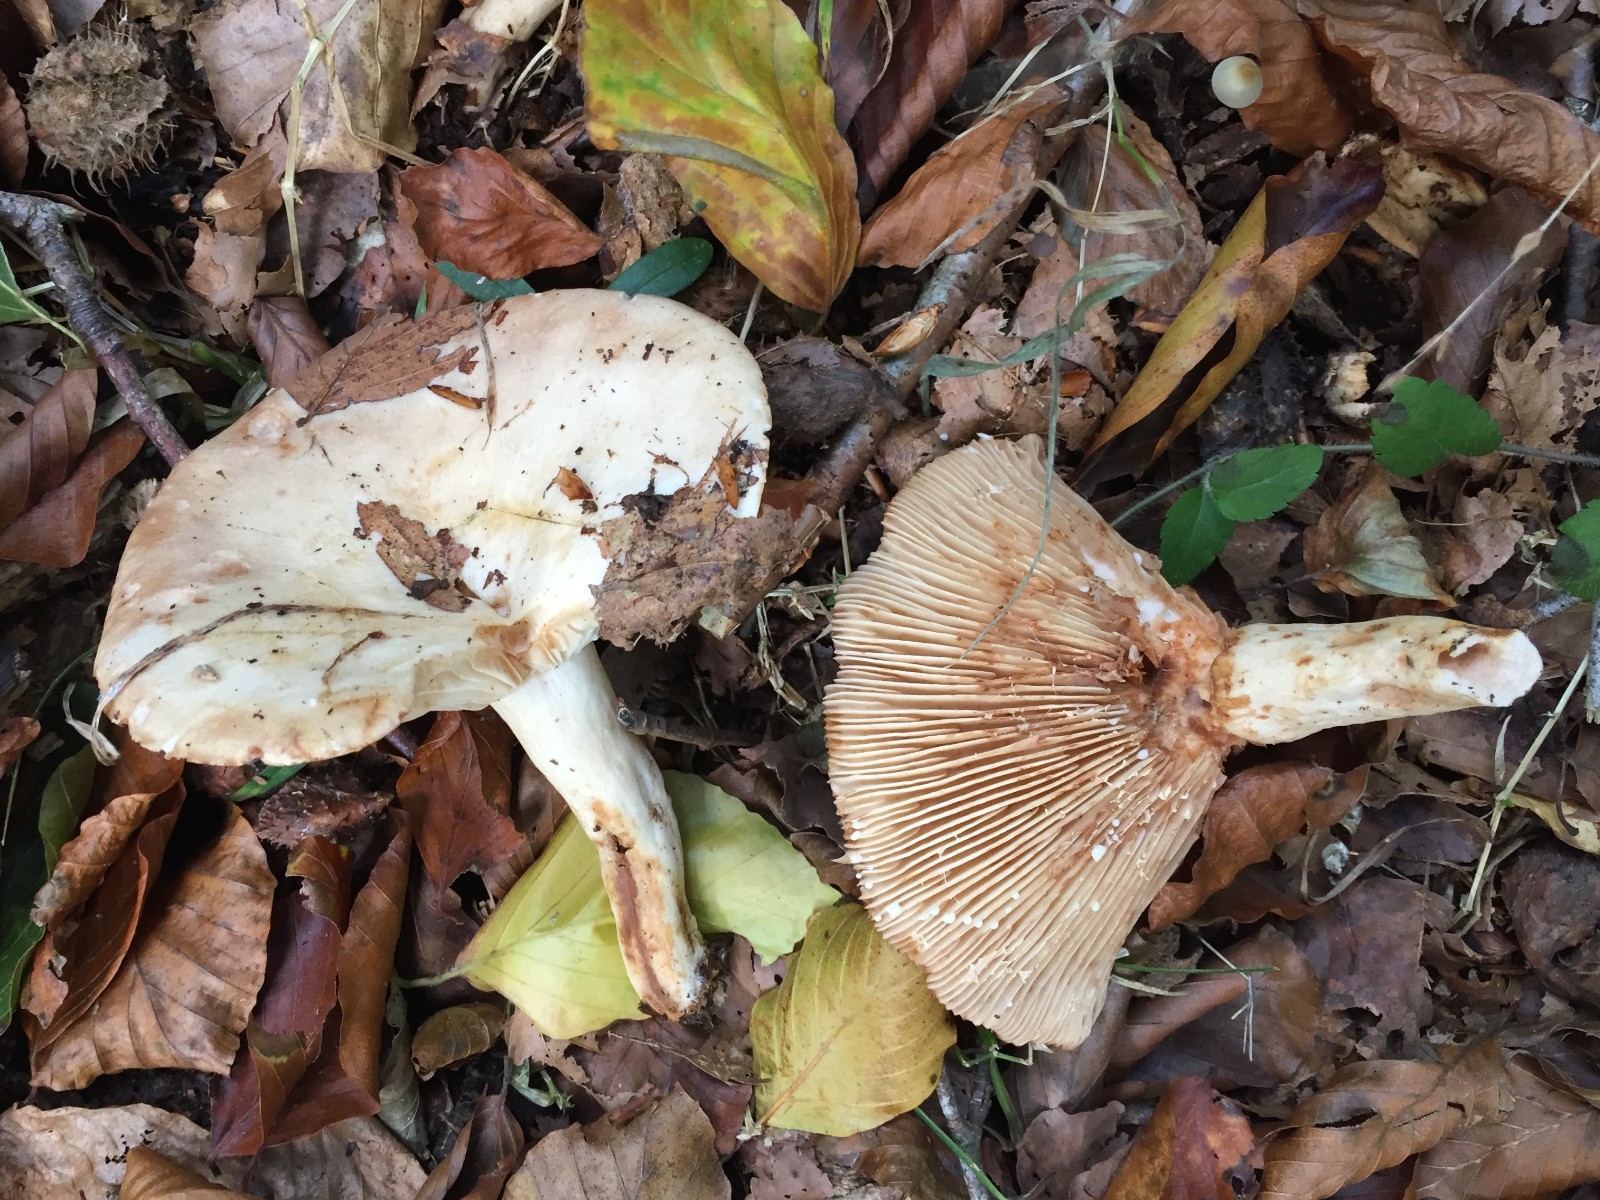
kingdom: Fungi
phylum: Basidiomycota
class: Agaricomycetes
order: Russulales
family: Russulaceae
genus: Lactarius
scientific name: Lactarius pallidus
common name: bleg mælkehat
